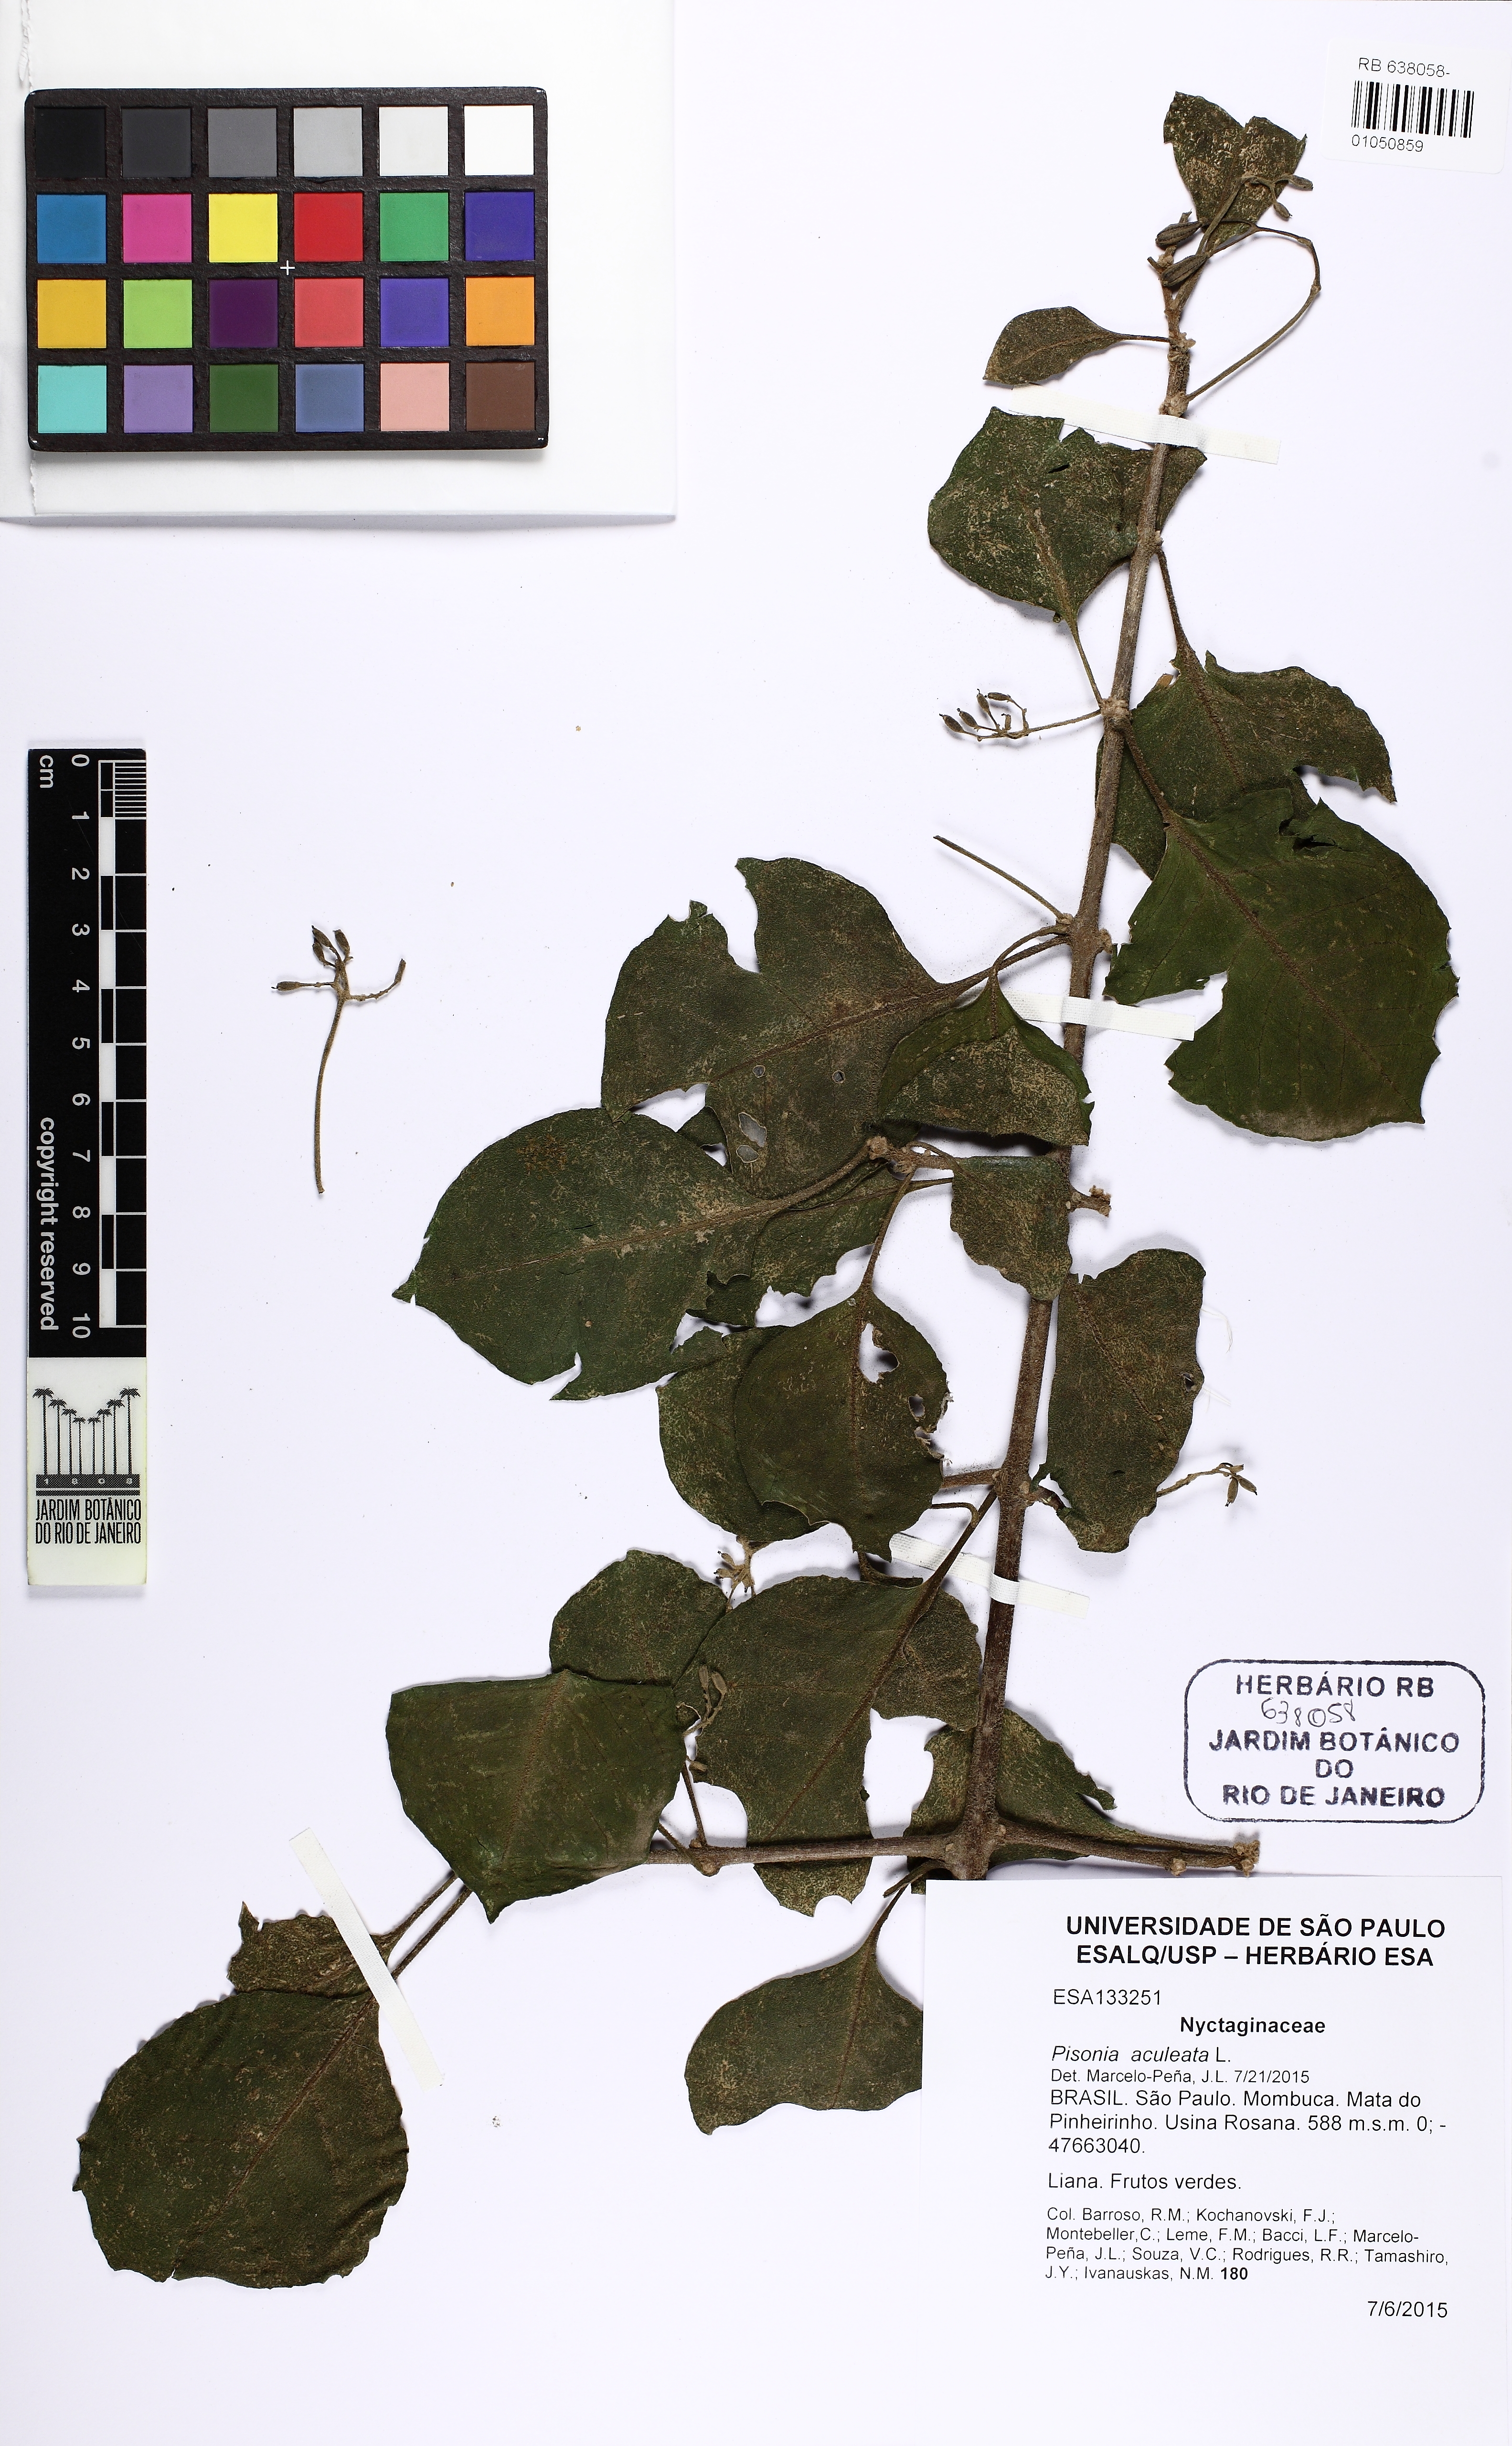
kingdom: Plantae
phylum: Tracheophyta
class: Magnoliopsida
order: Caryophyllales
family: Nyctaginaceae
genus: Pisonia
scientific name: Pisonia aculeata
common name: Cockspur vine
